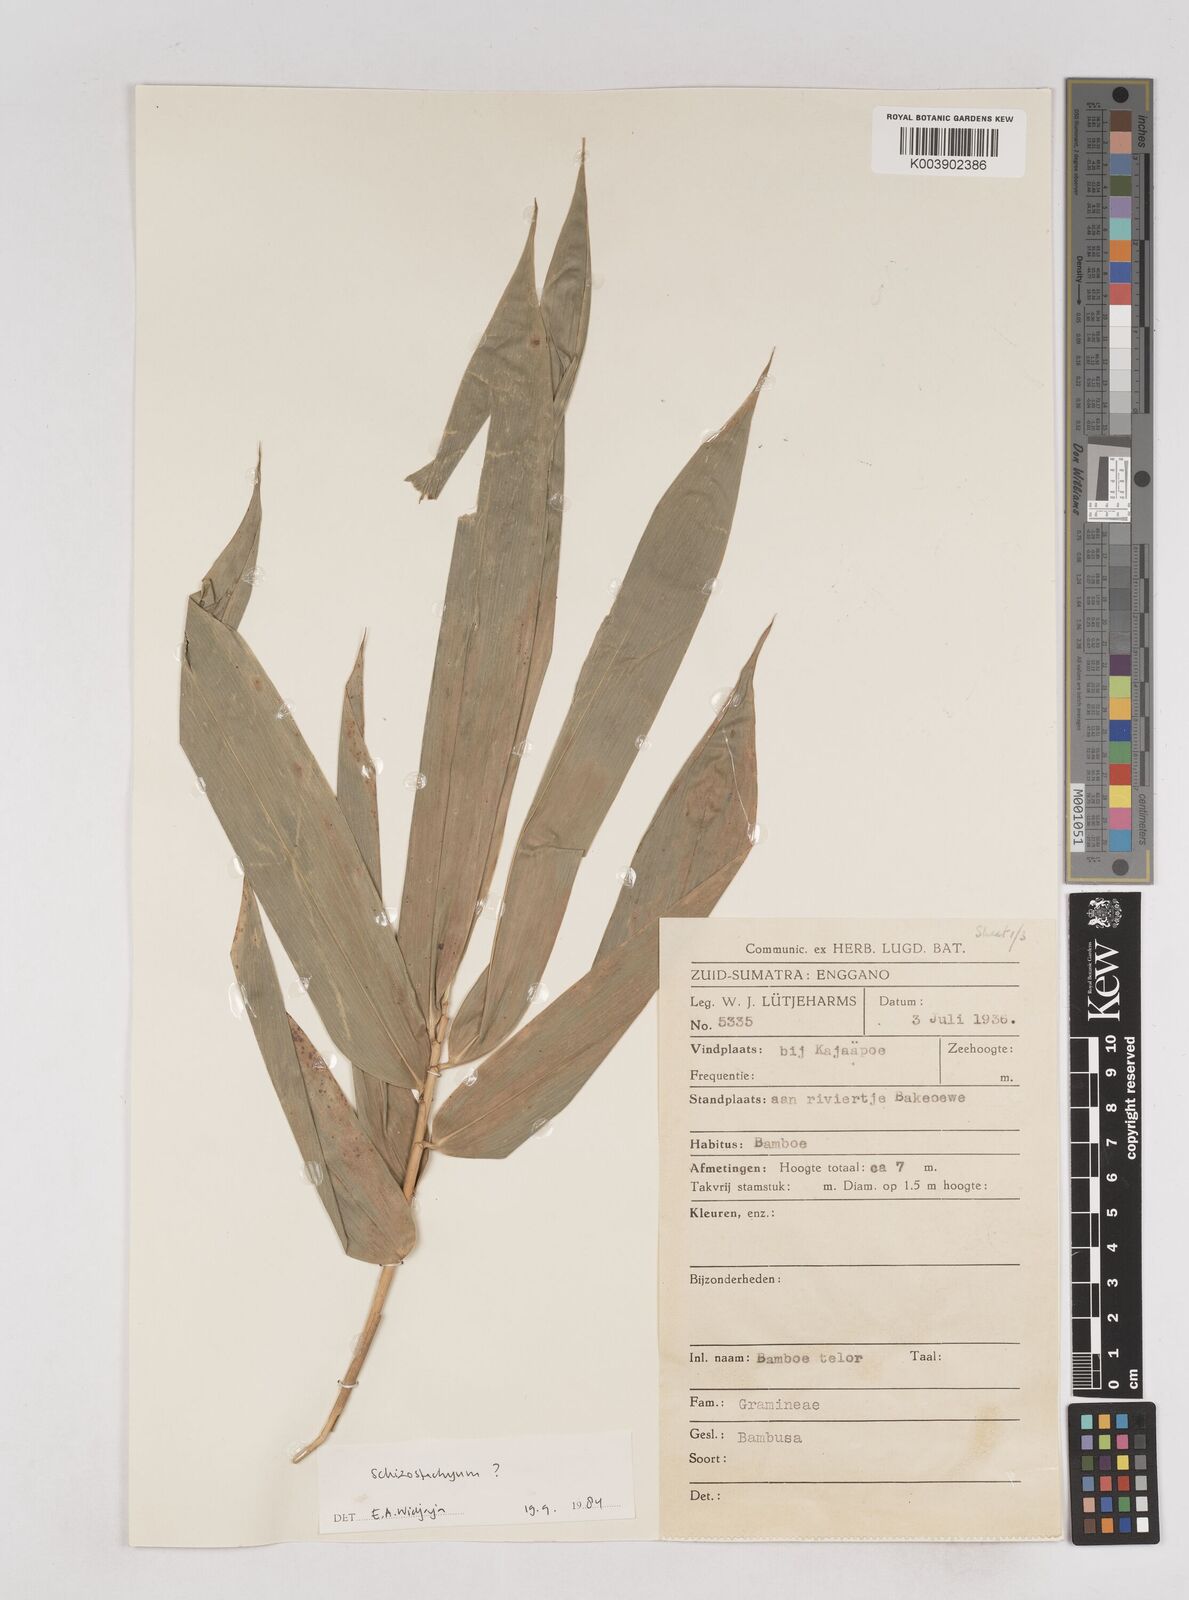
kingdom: Plantae
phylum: Tracheophyta
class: Liliopsida
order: Poales
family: Poaceae
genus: Schizostachyum
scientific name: Schizostachyum zollingeri
